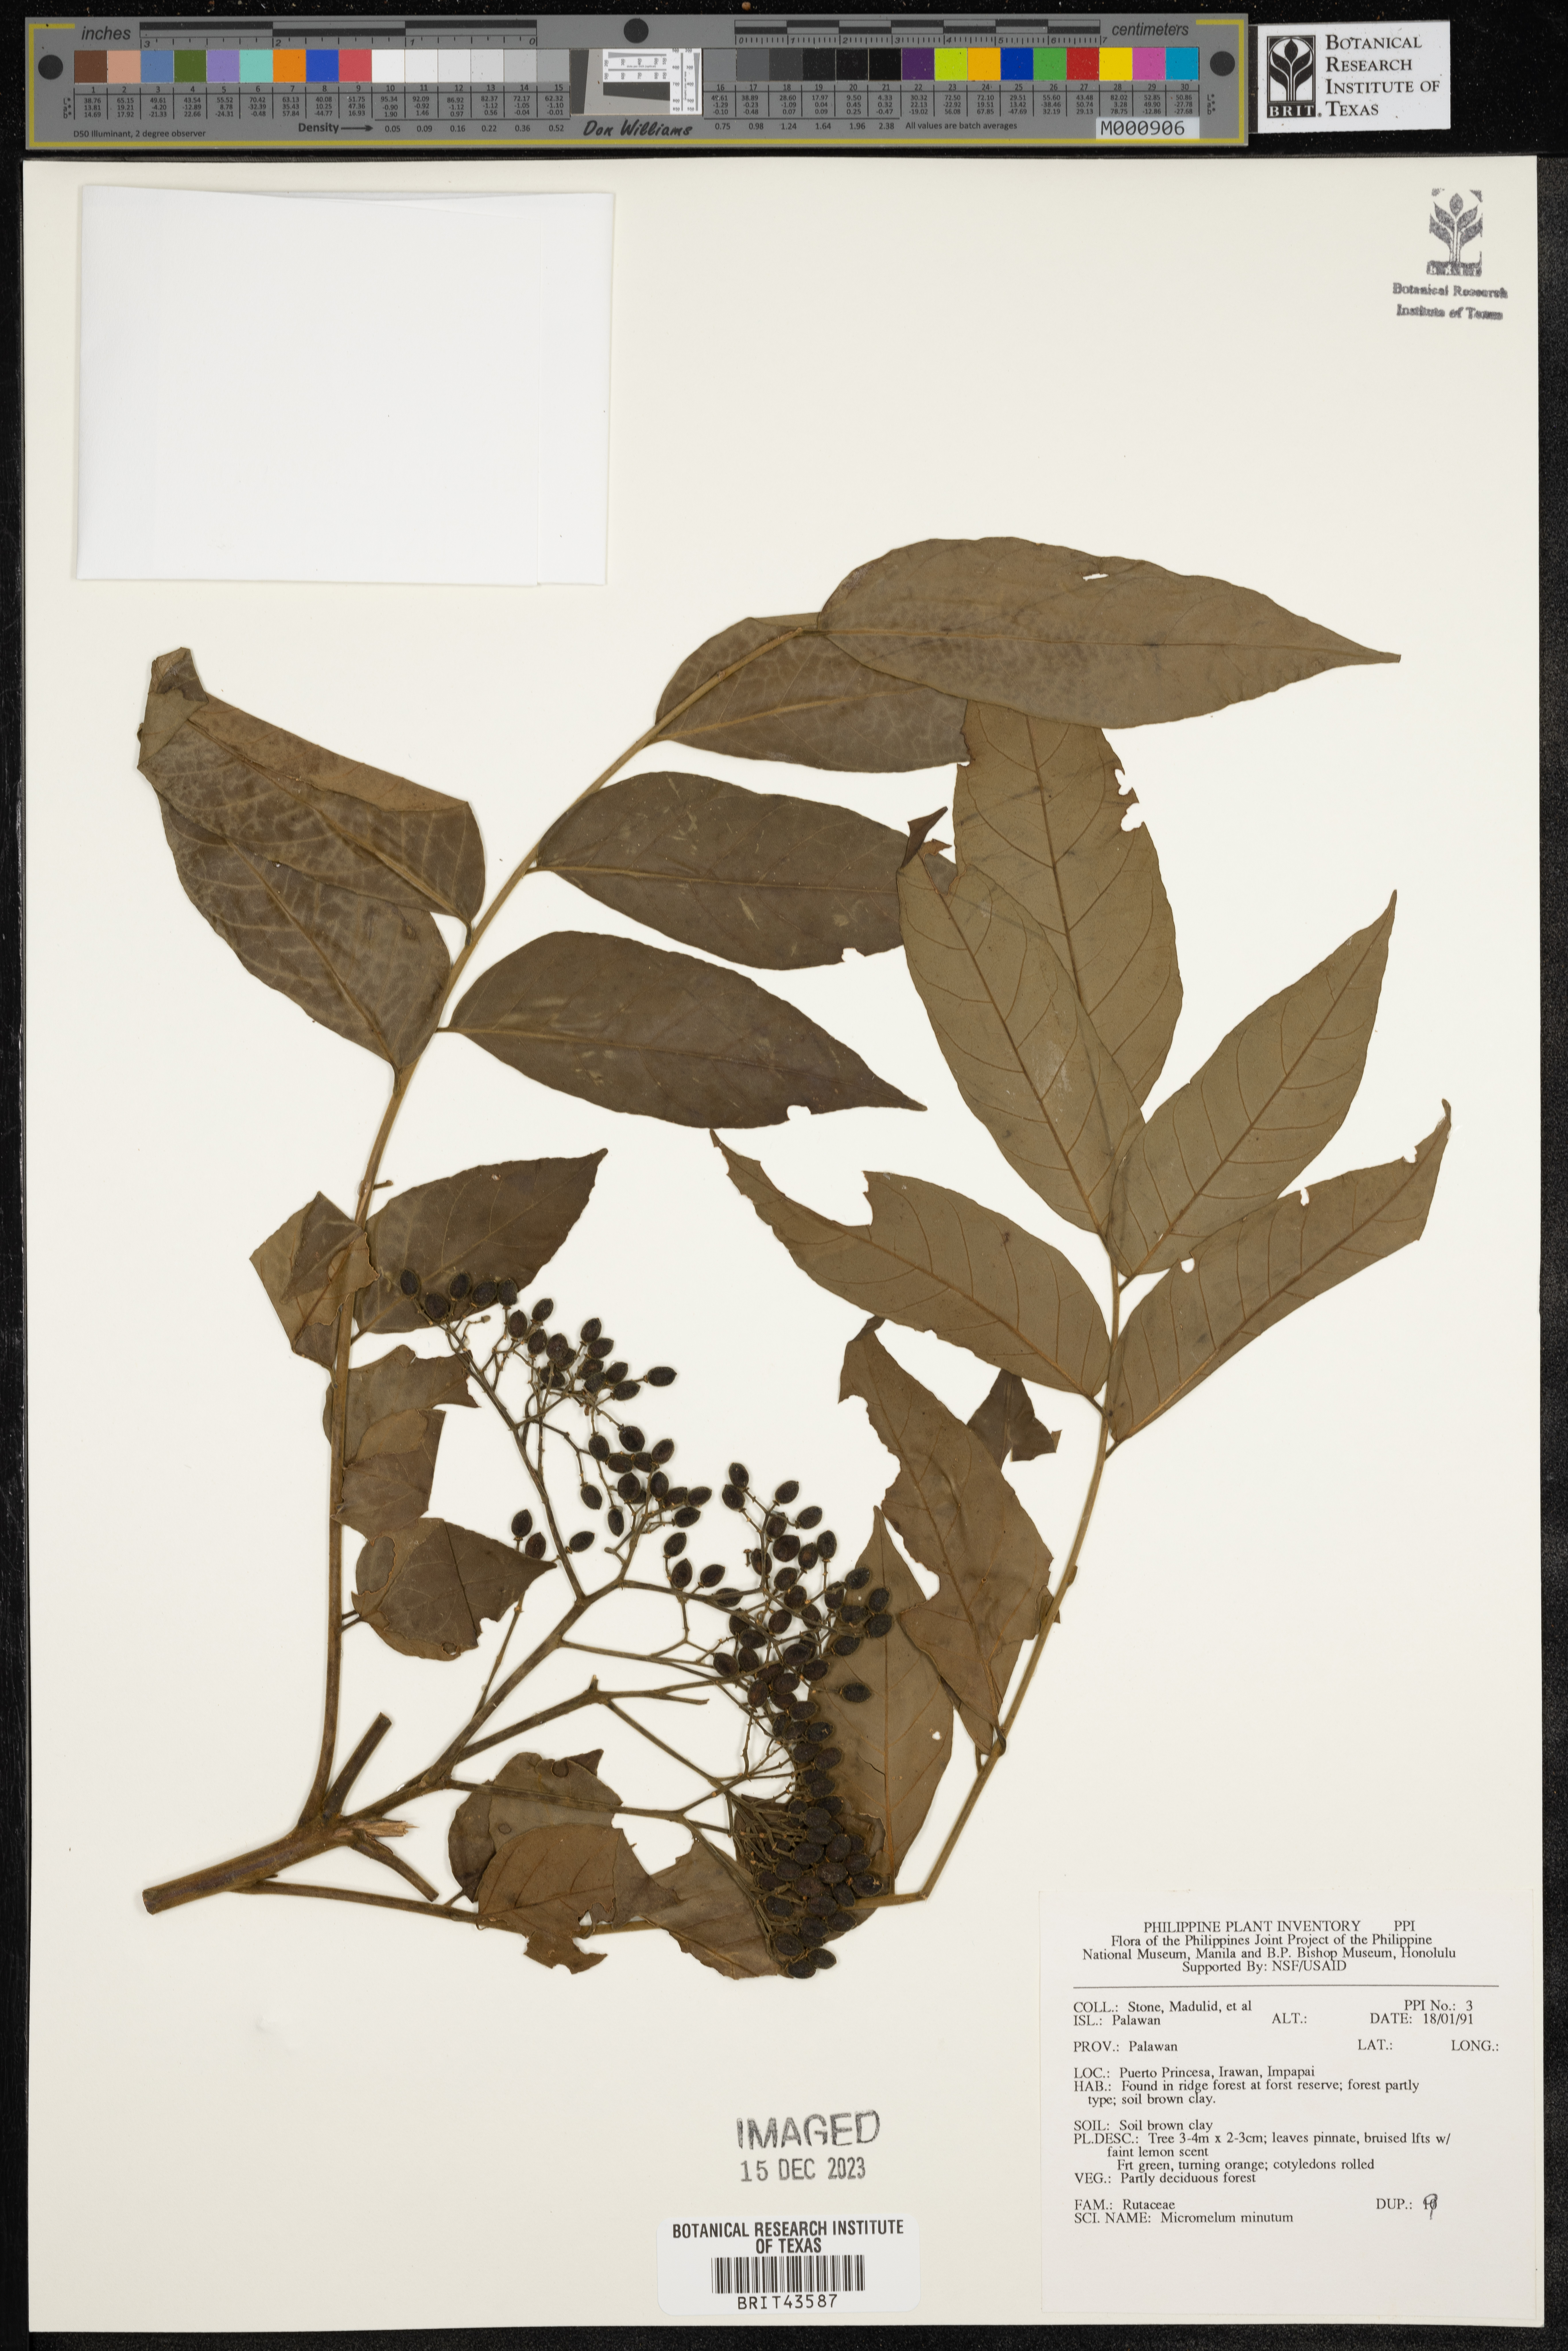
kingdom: Plantae
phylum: Tracheophyta
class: Magnoliopsida
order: Sapindales
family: Rutaceae
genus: Micromelum
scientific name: Micromelum minutum
